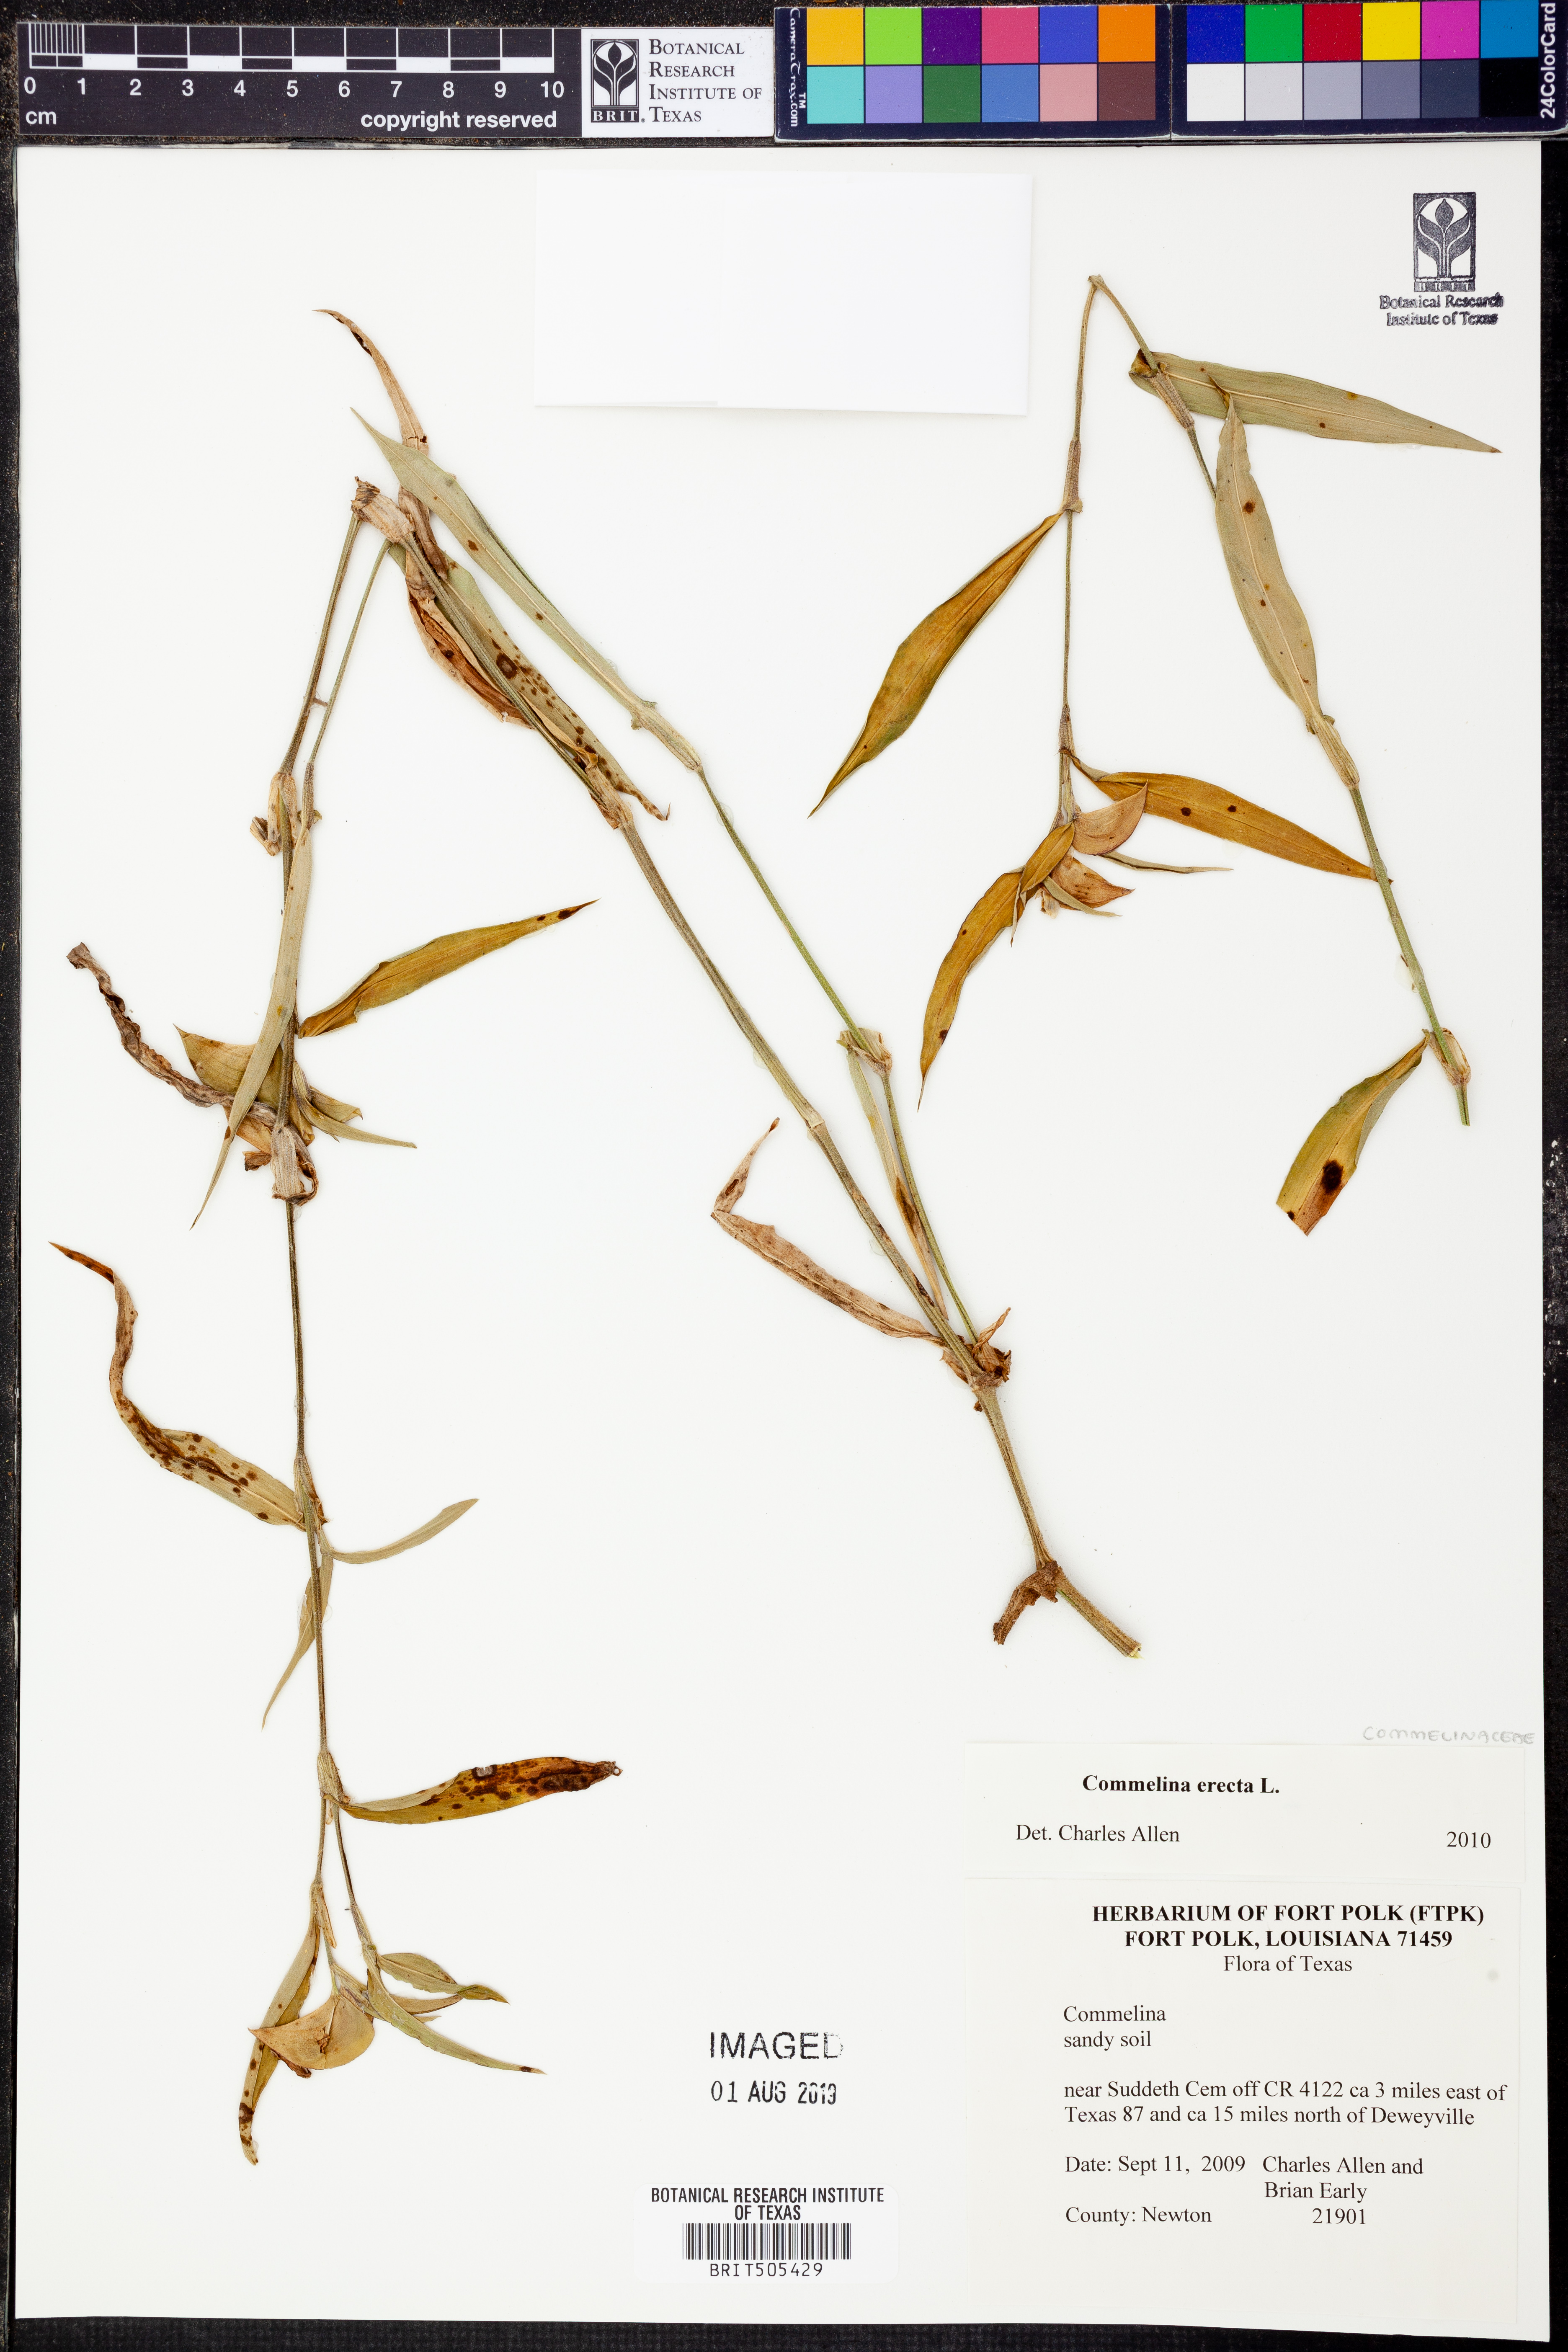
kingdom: Plantae
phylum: Tracheophyta
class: Liliopsida
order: Commelinales
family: Commelinaceae
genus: Commelina
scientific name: Commelina erecta
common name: Blousel blommetjie
